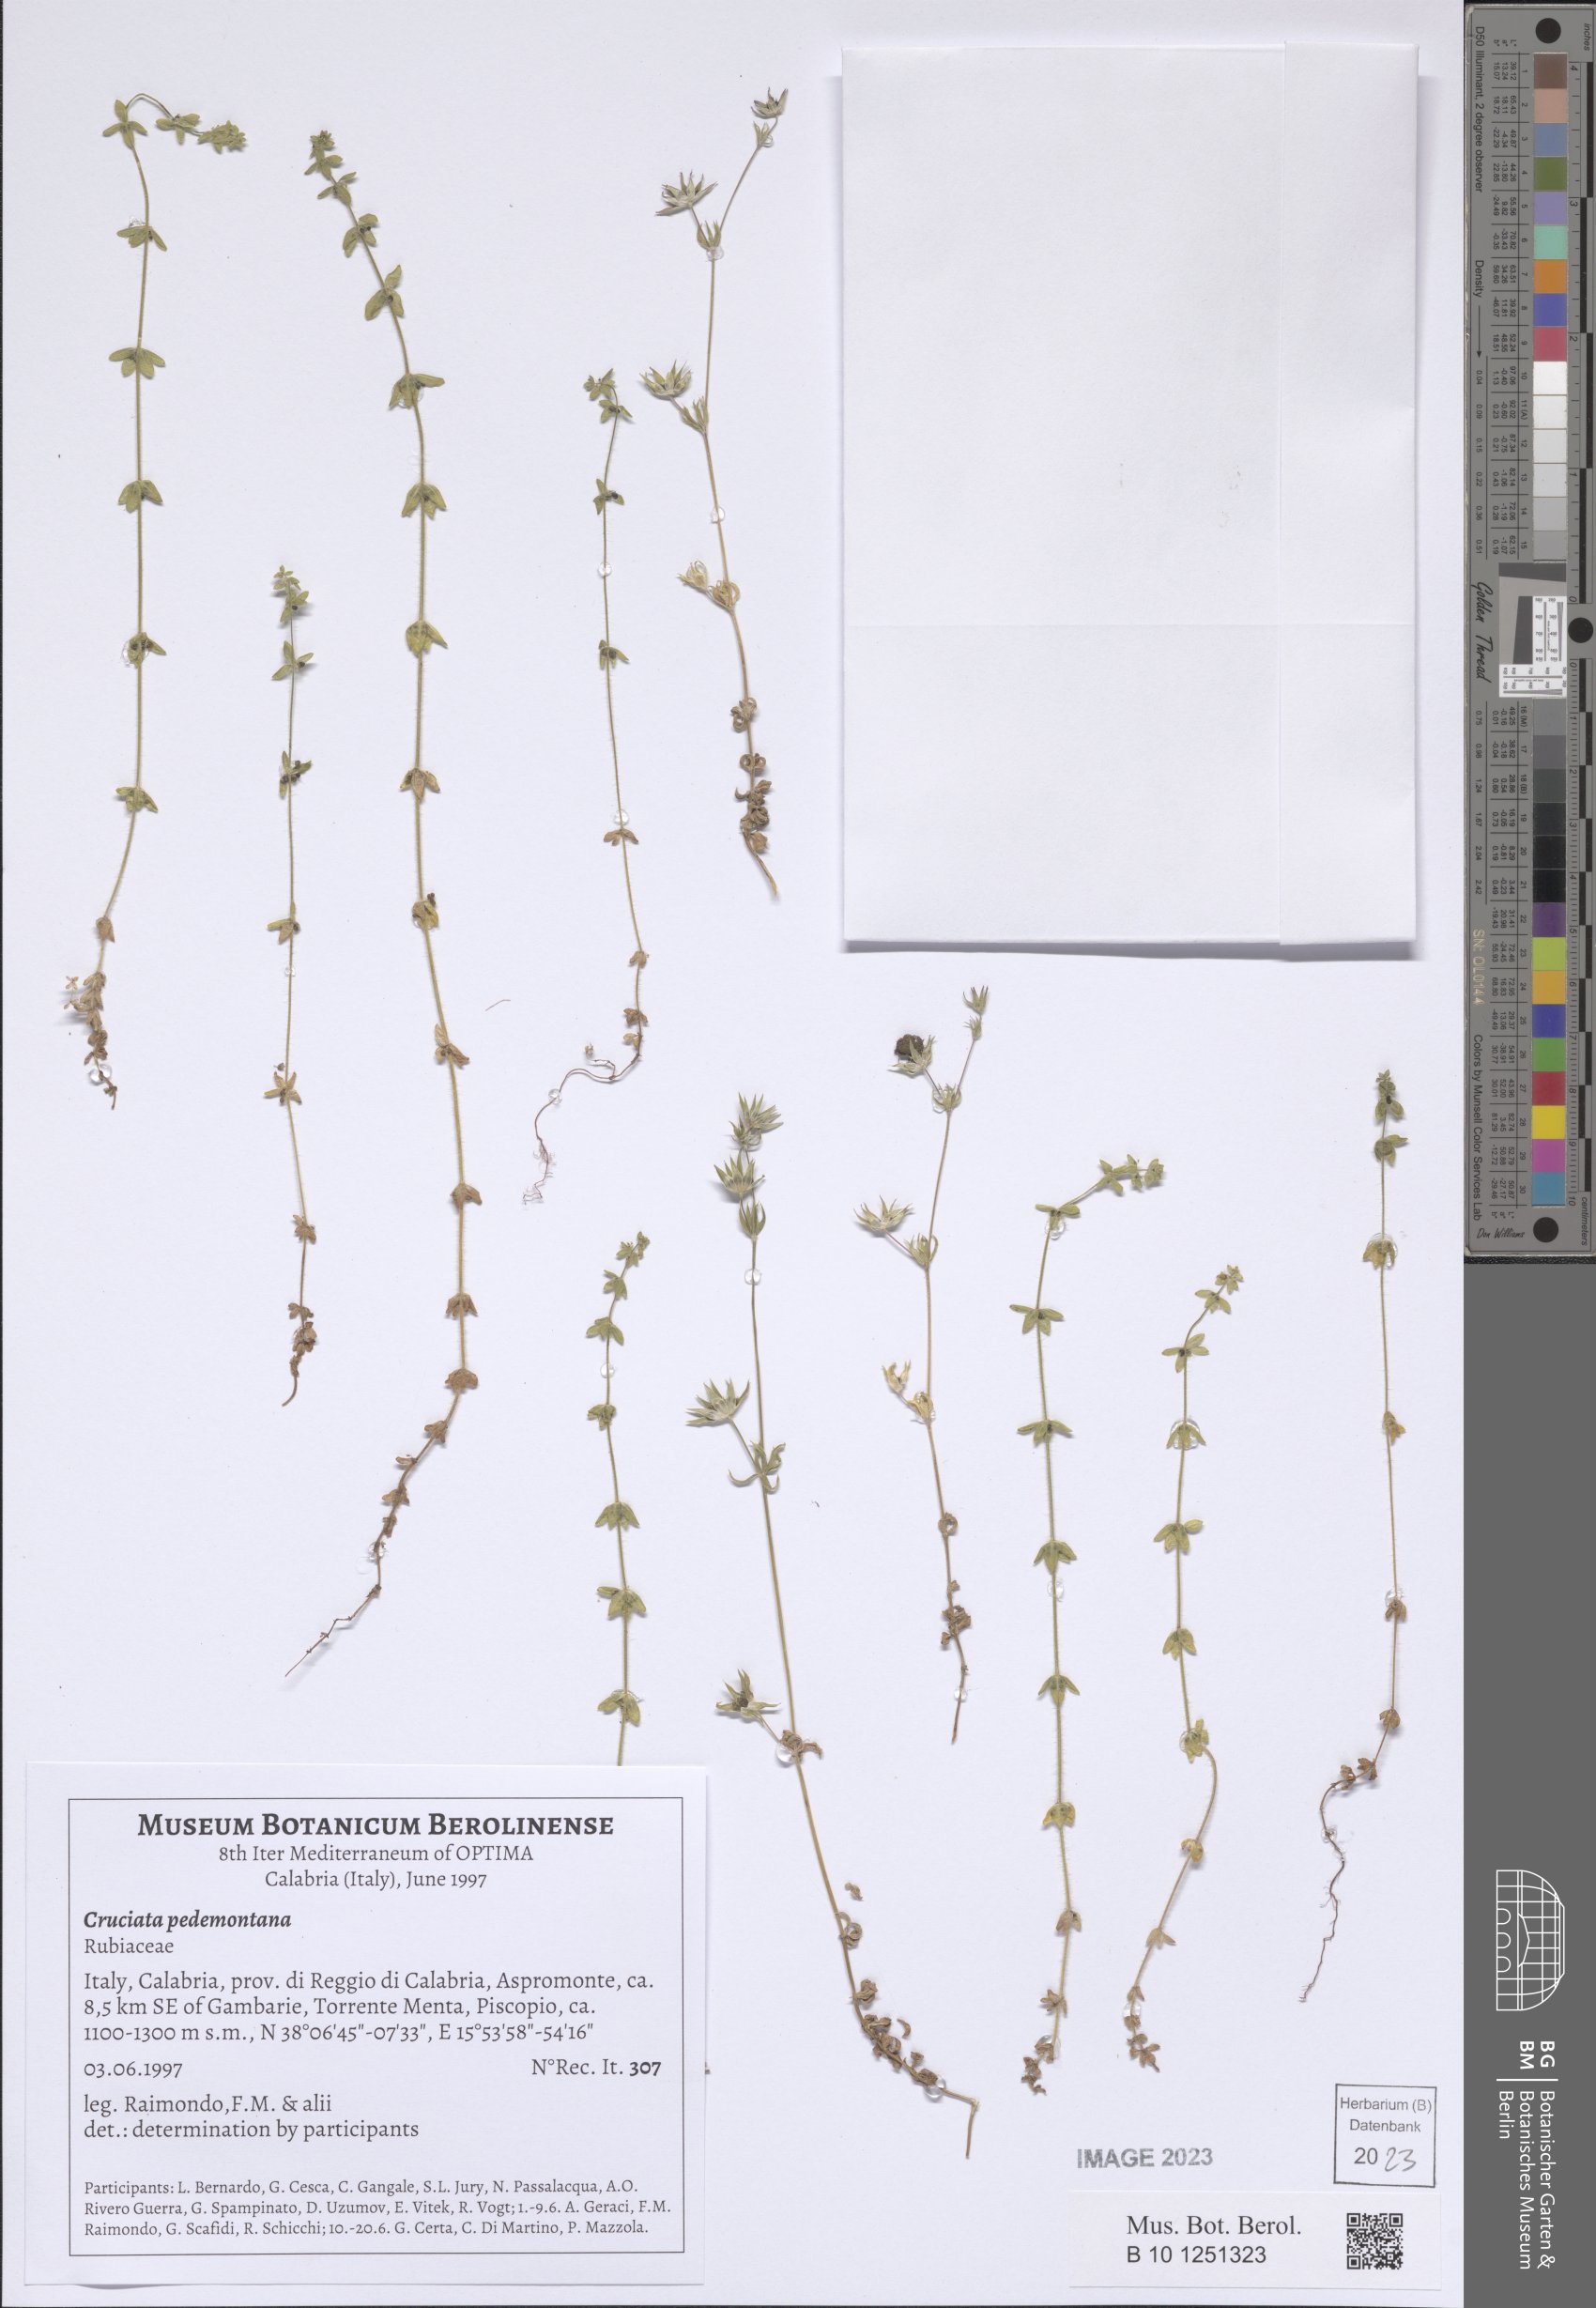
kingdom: Plantae
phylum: Tracheophyta
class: Magnoliopsida
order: Gentianales
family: Rubiaceae
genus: Cruciata
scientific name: Cruciata pedemontana
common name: Piedmont bedstraw
